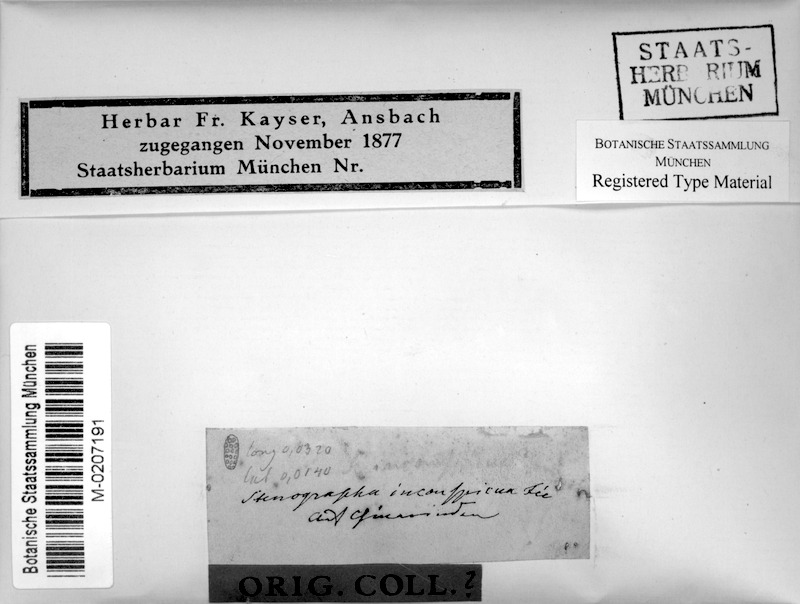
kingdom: Fungi
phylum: Ascomycota
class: Lecanoromycetes
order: Ostropales
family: Graphidaceae
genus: Phaeographis
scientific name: Phaeographis
